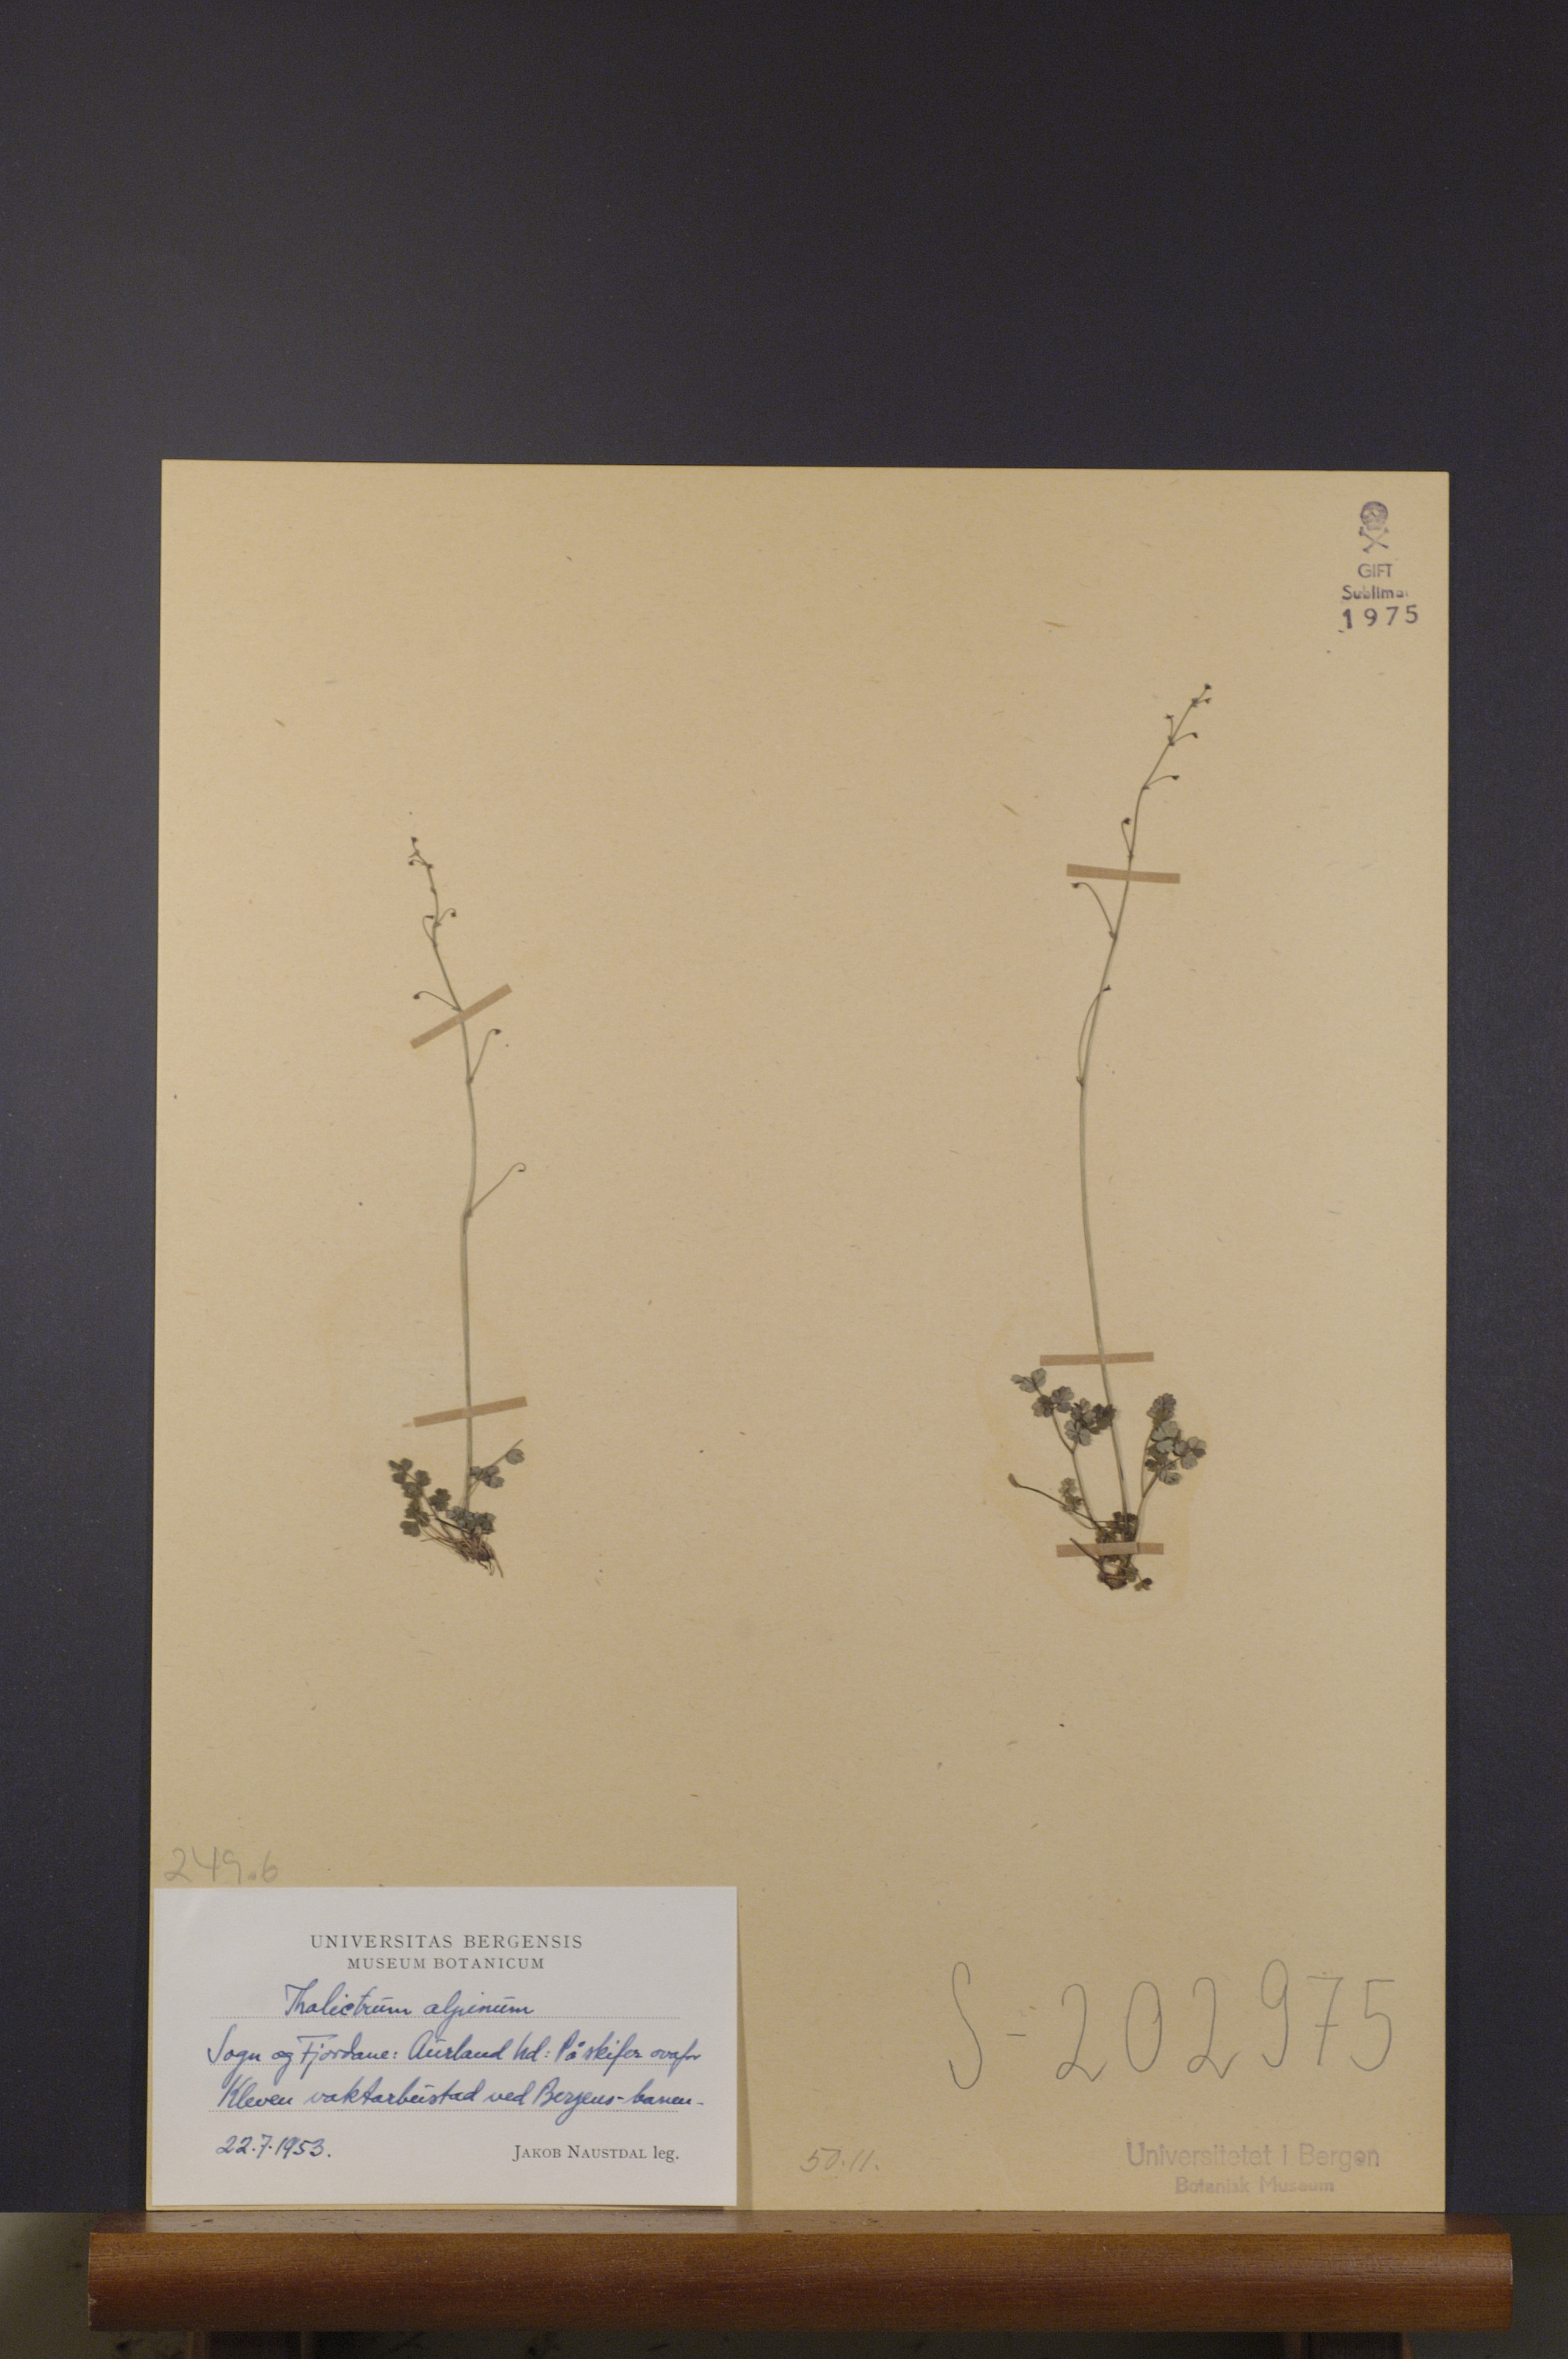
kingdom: Plantae
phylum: Tracheophyta
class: Magnoliopsida
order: Ranunculales
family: Ranunculaceae
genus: Thalictrum
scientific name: Thalictrum alpinum
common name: Alpine meadow-rue
